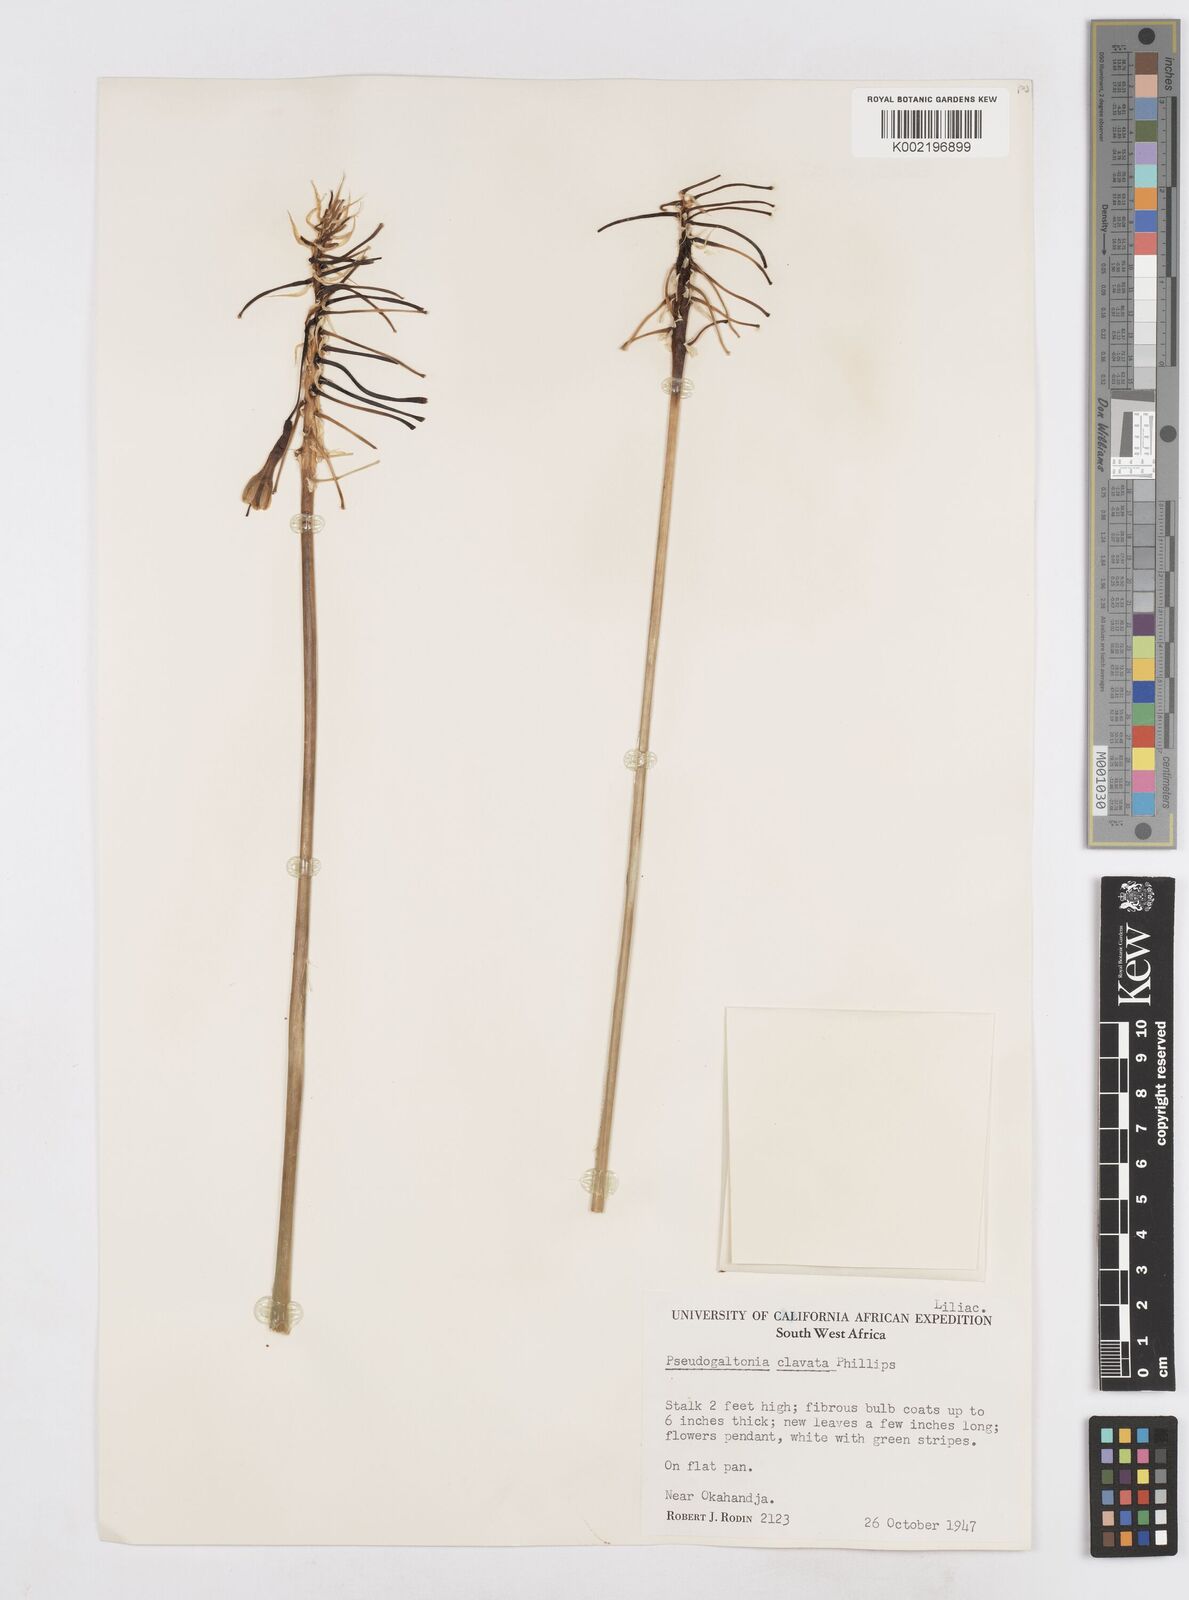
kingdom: Plantae
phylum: Tracheophyta
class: Liliopsida
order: Asparagales
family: Asparagaceae
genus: Pseudogaltonia
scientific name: Pseudogaltonia clavata
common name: South west african slangkop
